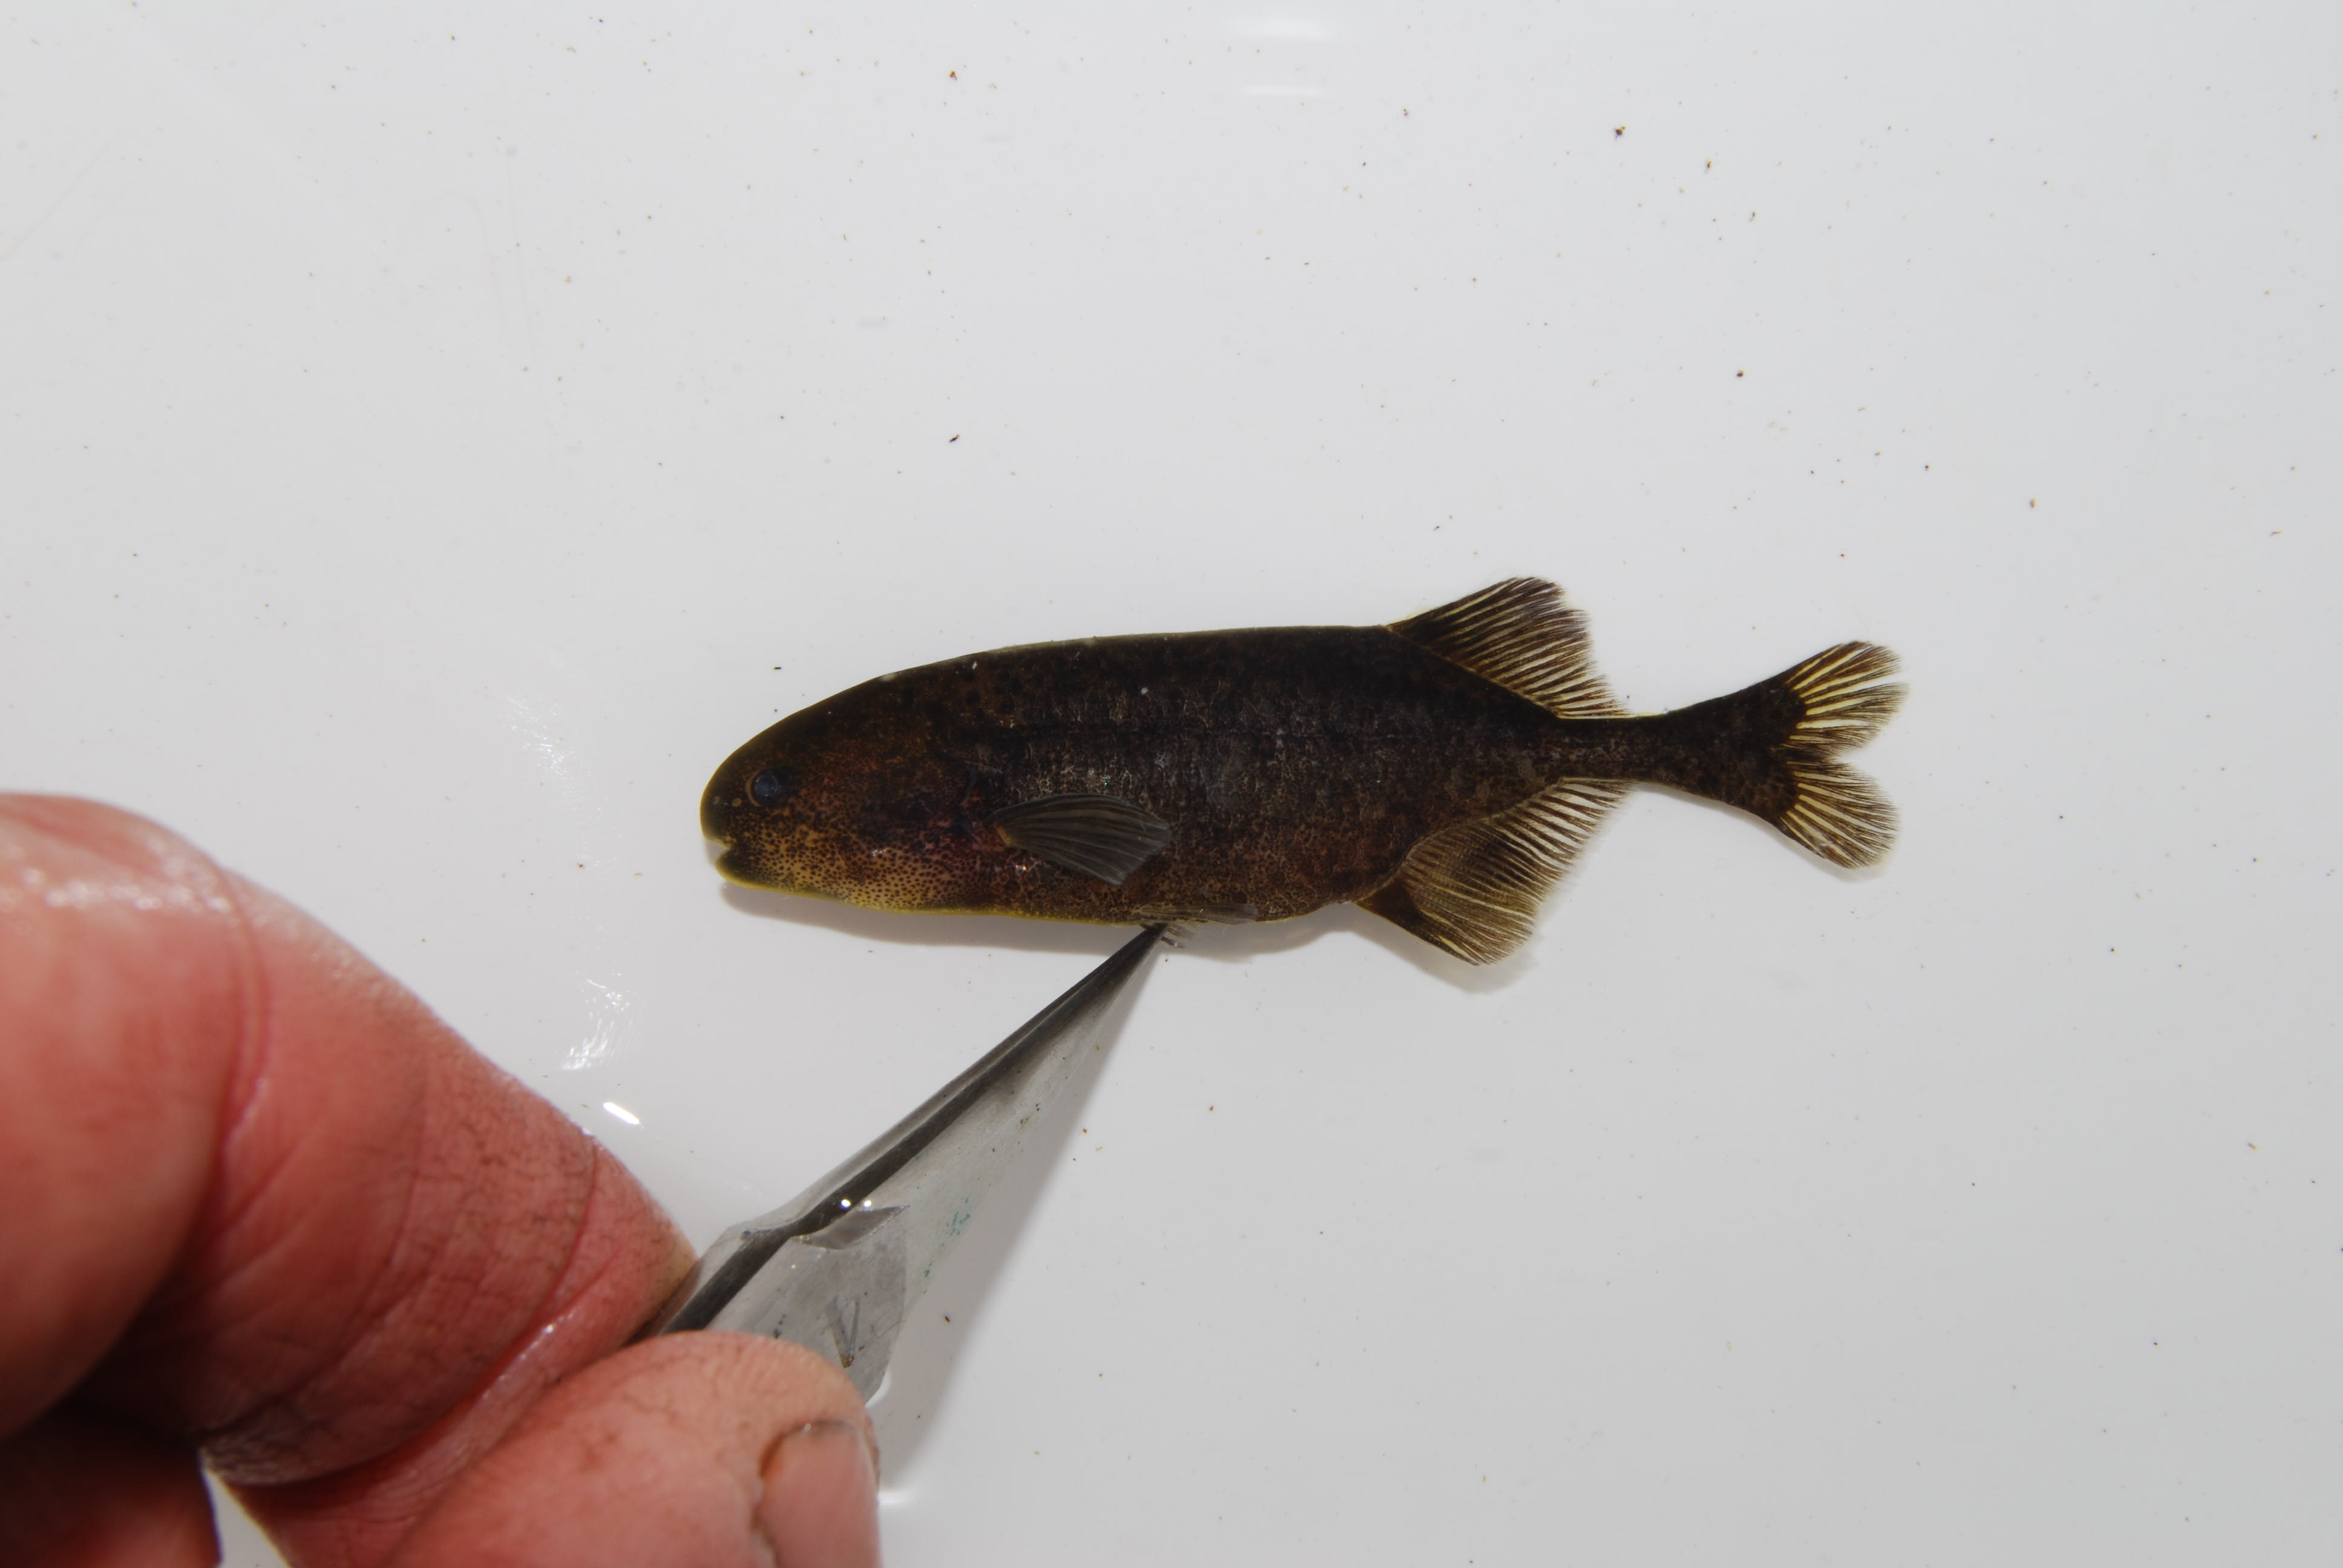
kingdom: Animalia
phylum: Chordata
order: Osteoglossiformes
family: Mormyridae
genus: Pollimyrus
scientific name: Pollimyrus
